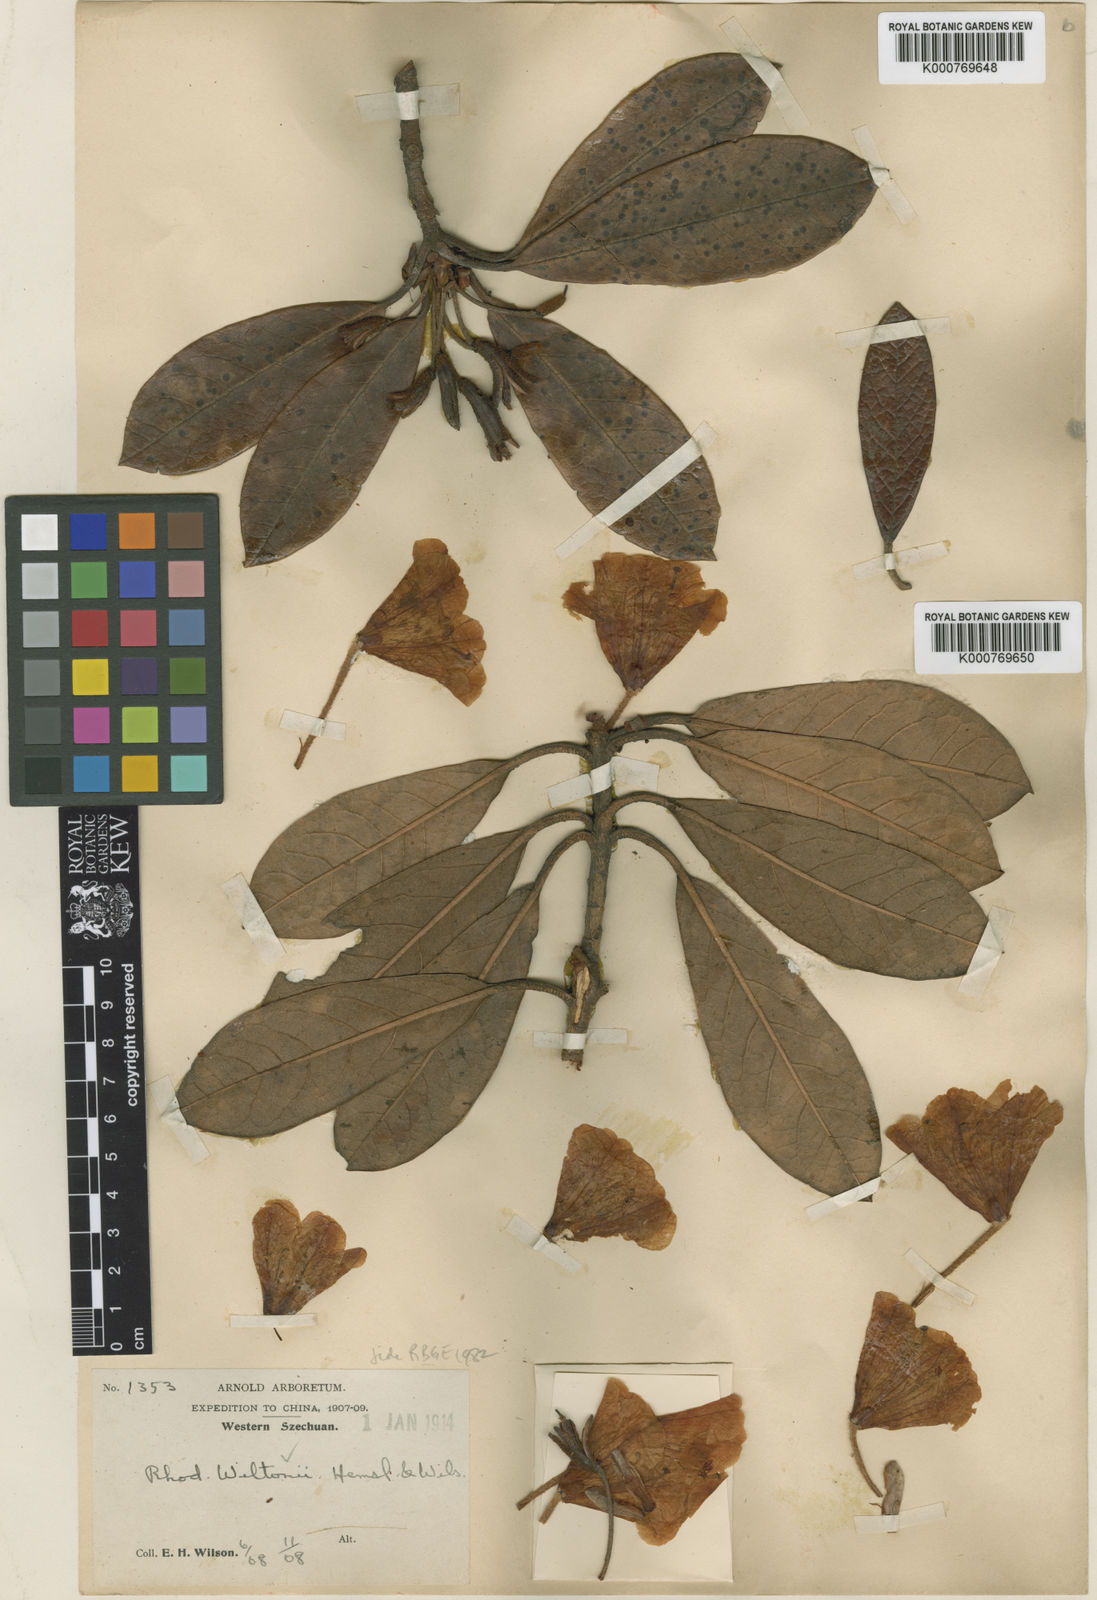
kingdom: Plantae
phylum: Tracheophyta
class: Magnoliopsida
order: Ericales
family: Ericaceae
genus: Rhododendron
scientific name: Rhododendron wiltonii
